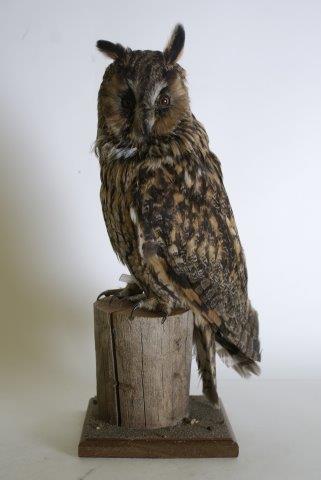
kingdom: Animalia
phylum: Chordata
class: Aves
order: Strigiformes
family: Strigidae
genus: Asio
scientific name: Asio otus
